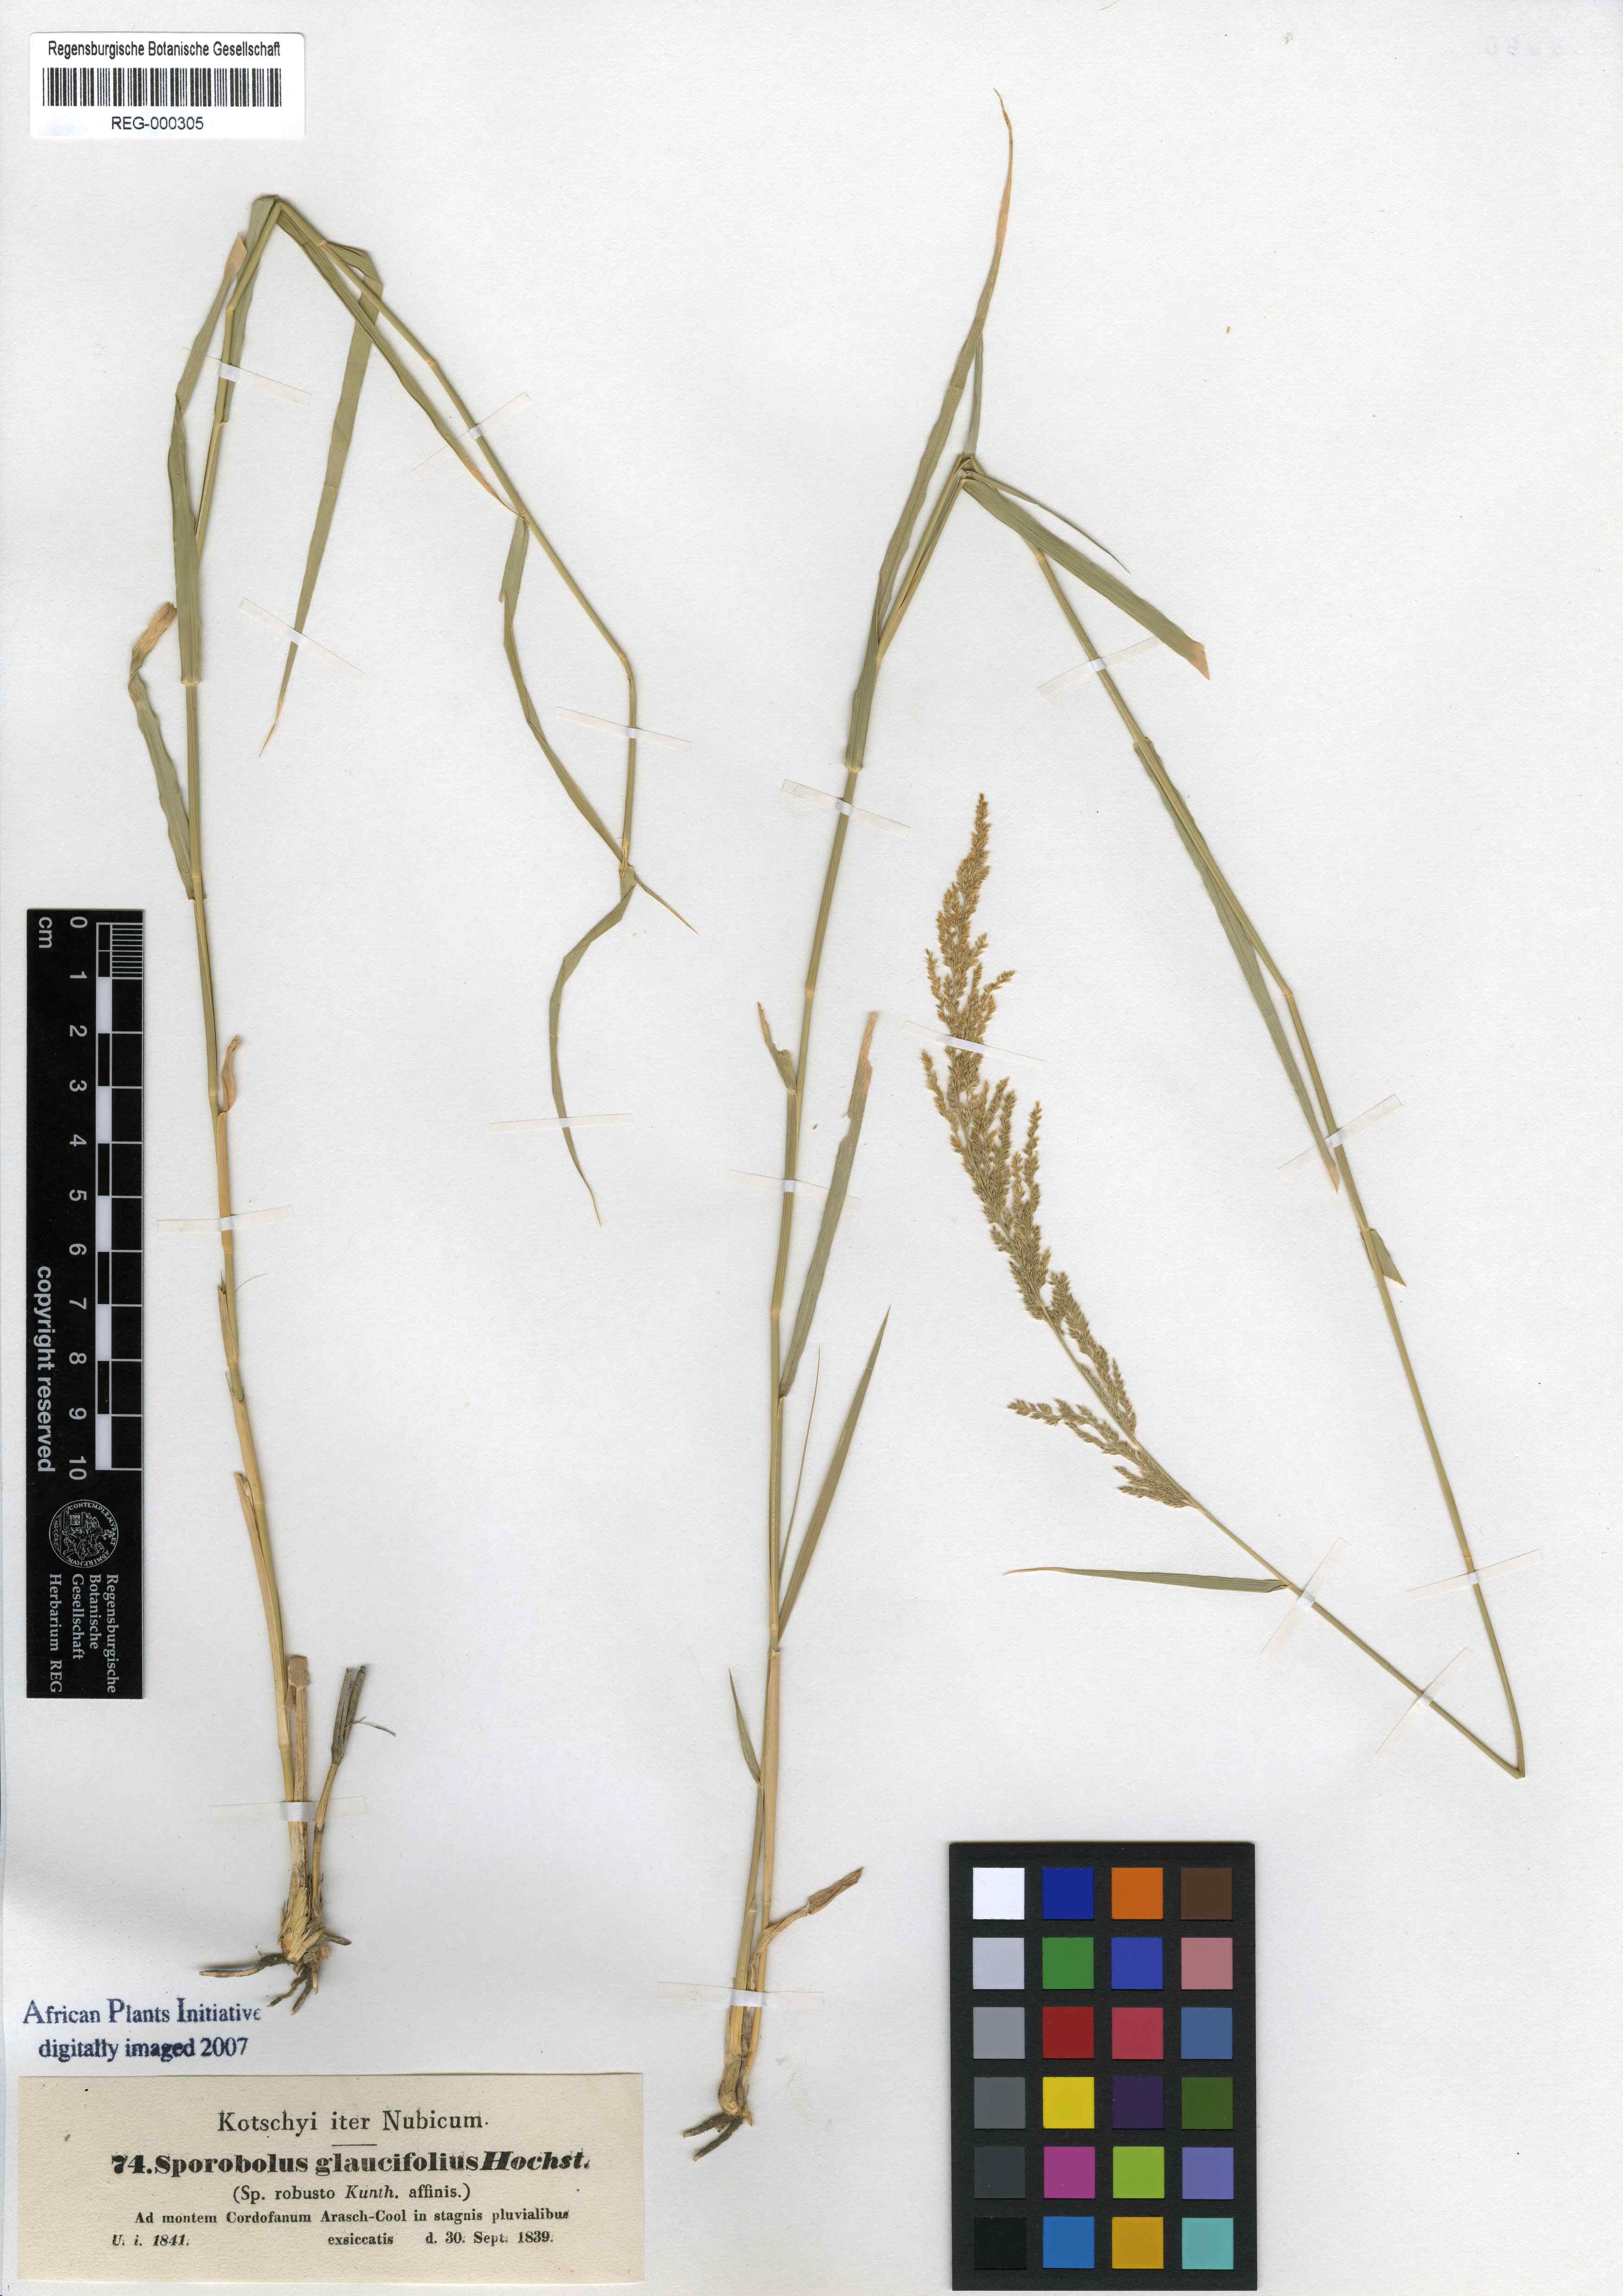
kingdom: Plantae
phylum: Tracheophyta
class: Liliopsida
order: Poales
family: Poaceae
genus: Sporobolus
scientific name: Sporobolus helvolus
